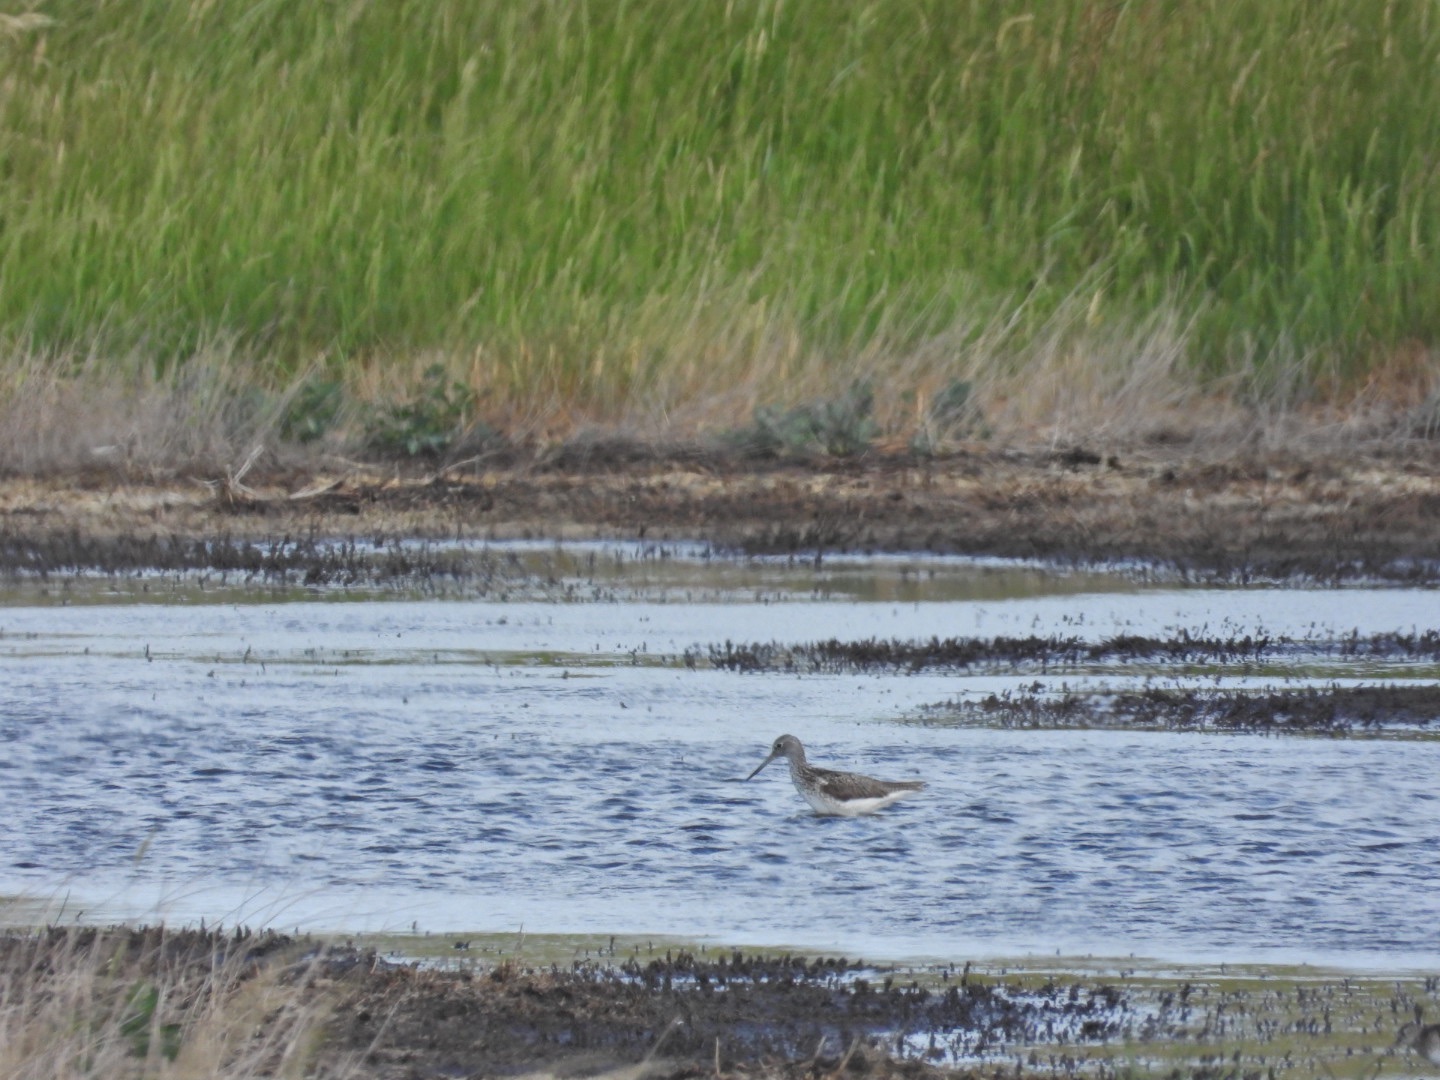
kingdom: Animalia
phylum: Chordata
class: Aves
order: Charadriiformes
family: Scolopacidae
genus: Tringa
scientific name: Tringa nebularia
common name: Hvidklire
